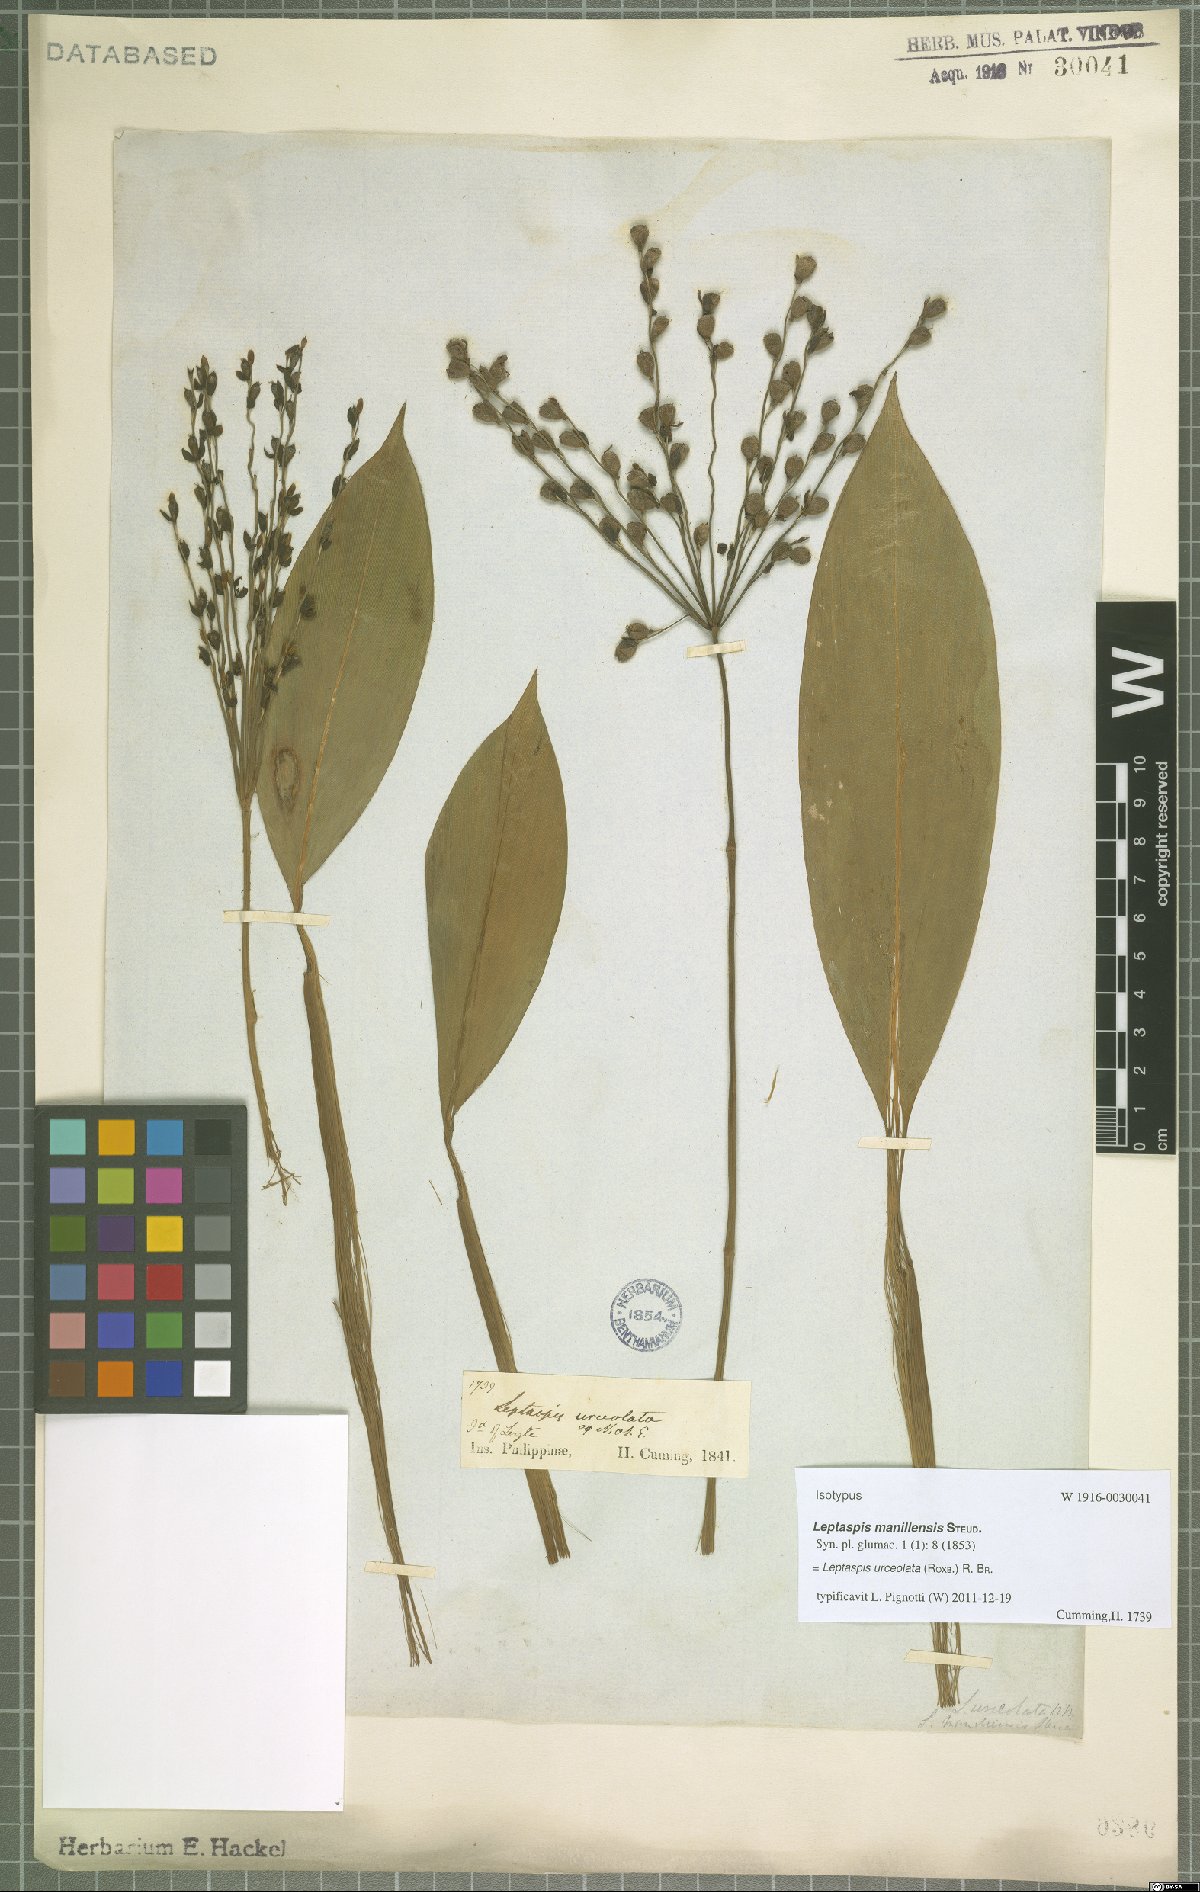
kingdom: Plantae
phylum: Tracheophyta
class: Liliopsida
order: Poales
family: Poaceae
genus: Scrotochloa
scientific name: Scrotochloa urceolata
